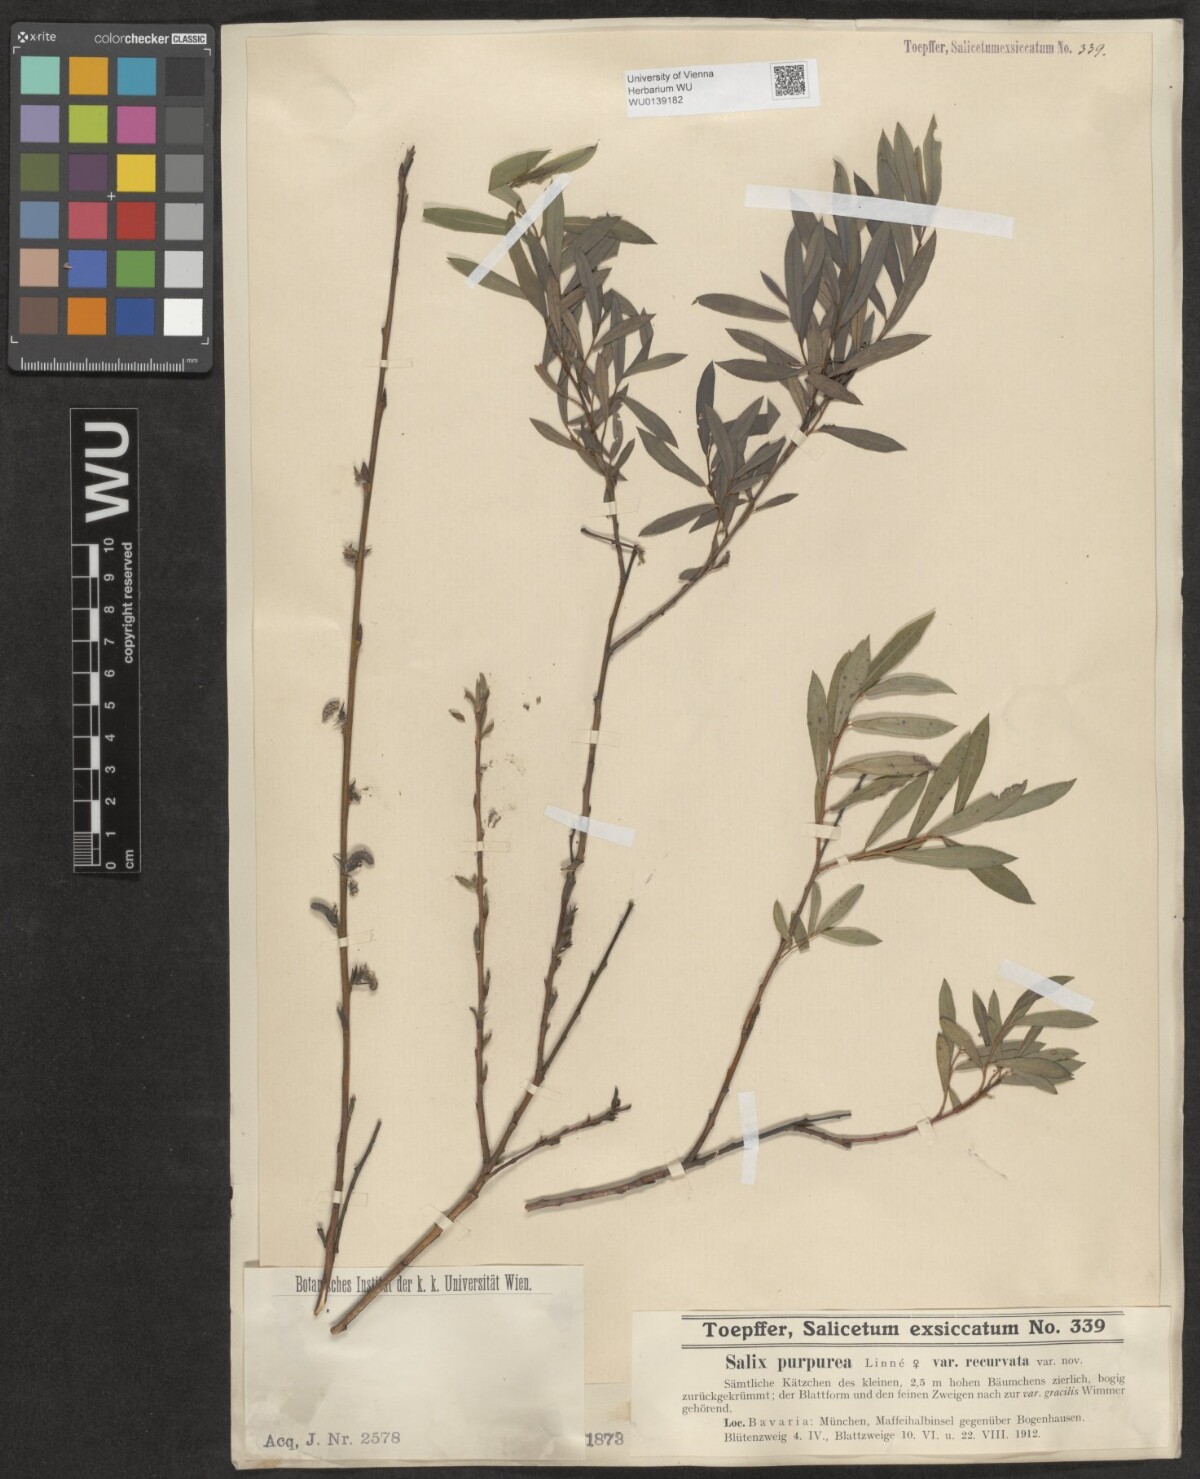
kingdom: Plantae
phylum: Tracheophyta
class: Magnoliopsida
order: Malpighiales
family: Salicaceae
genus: Salix
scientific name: Salix purpurea
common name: Purple willow
